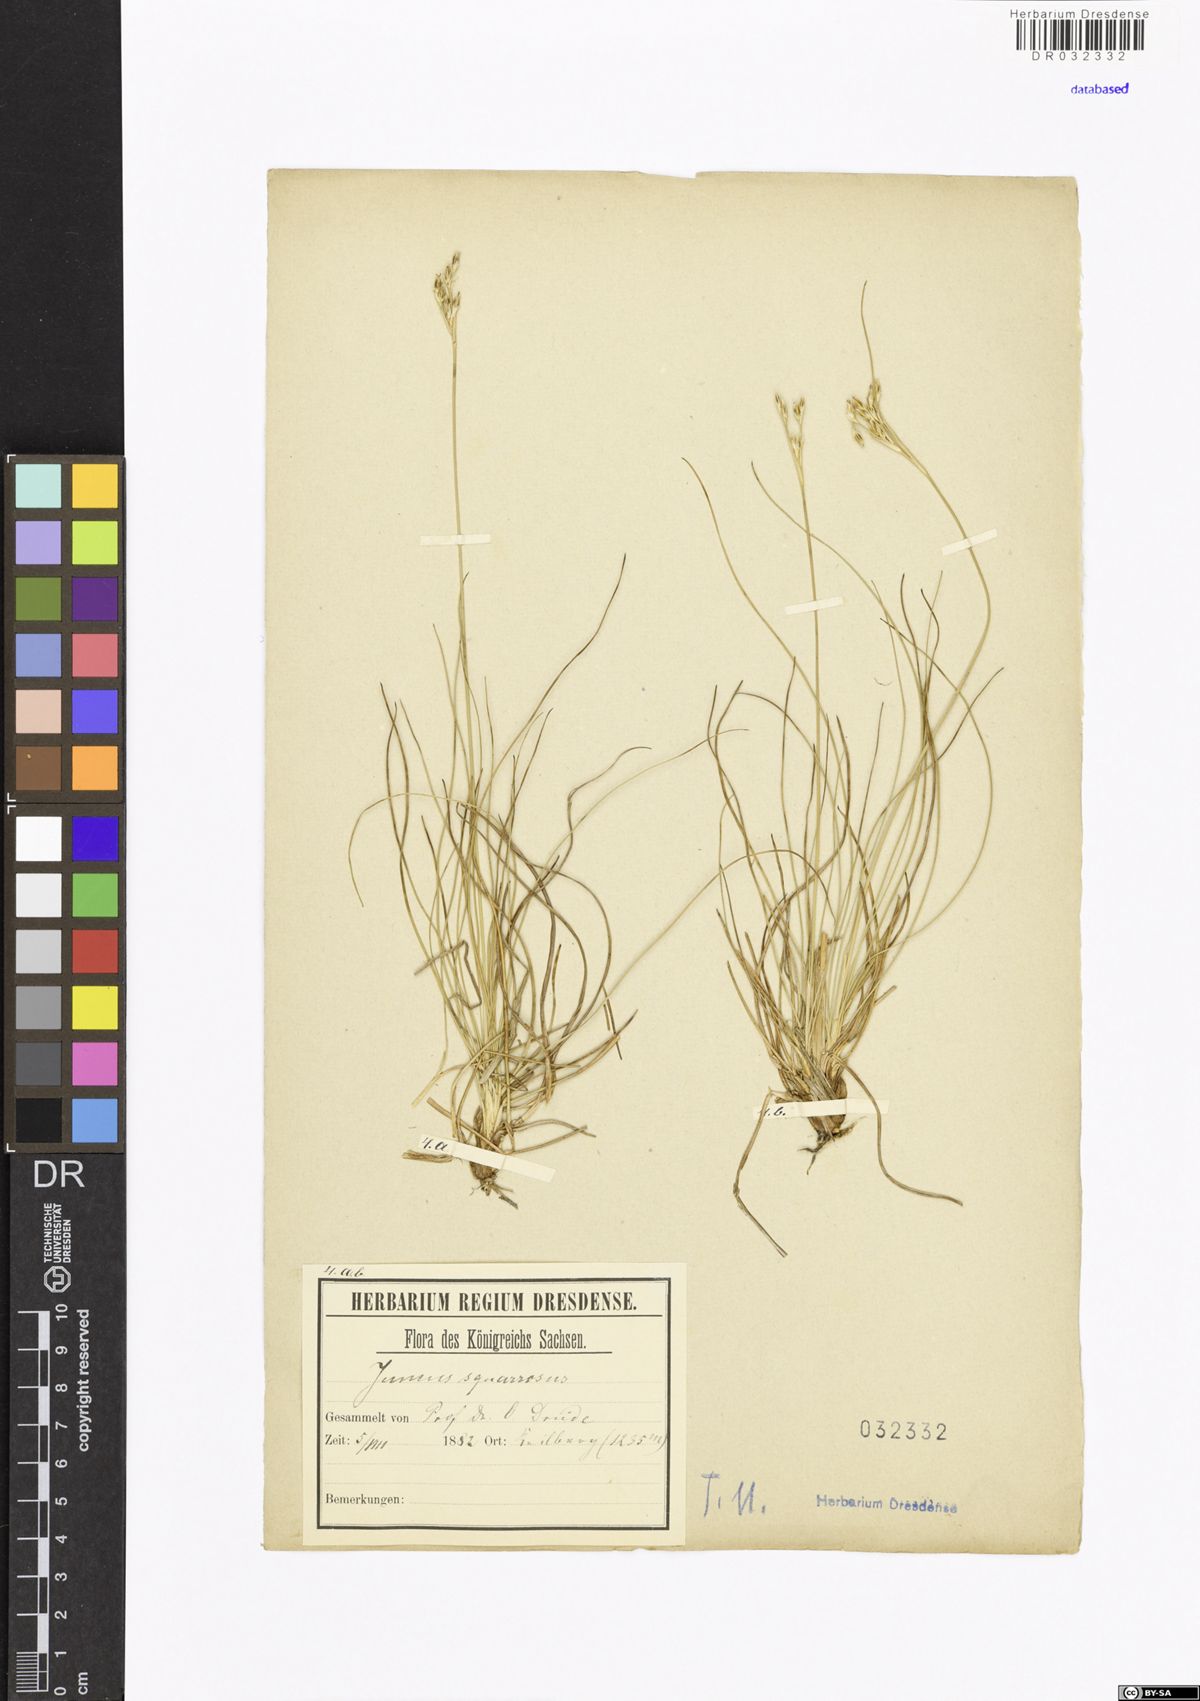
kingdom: Plantae
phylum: Tracheophyta
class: Liliopsida
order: Poales
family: Juncaceae
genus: Juncus
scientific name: Juncus squarrosus
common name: Heath rush
